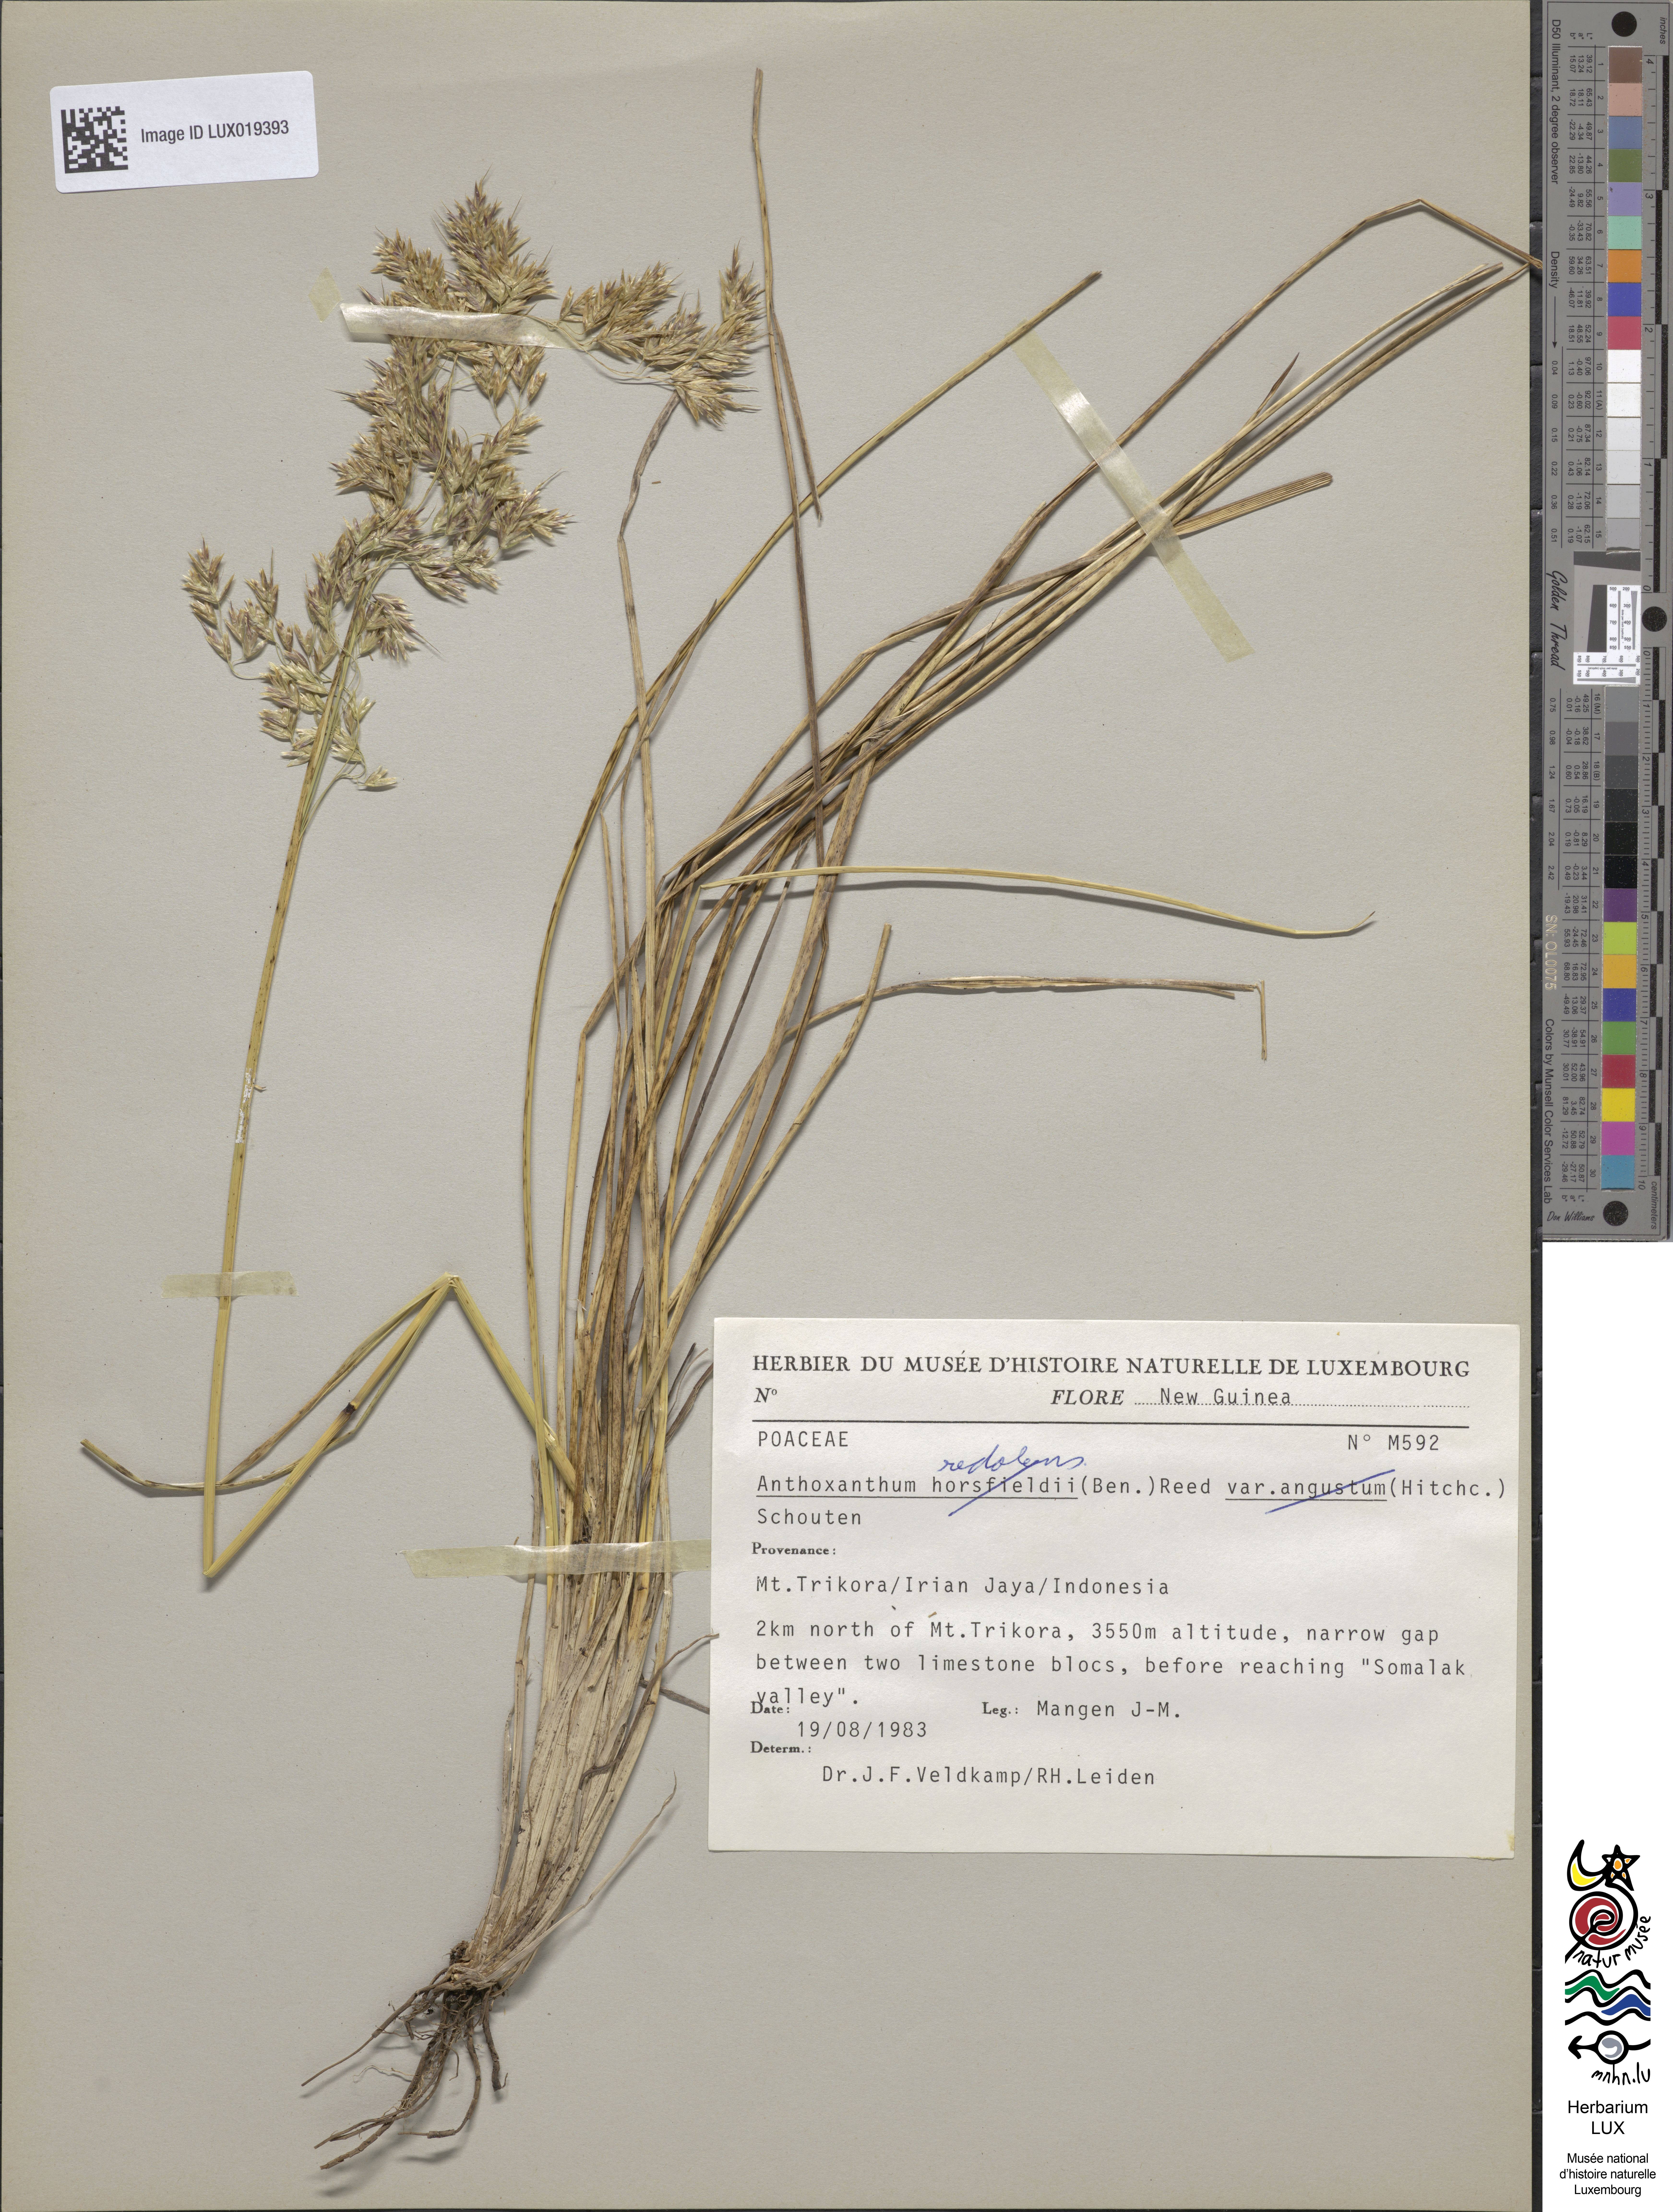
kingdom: Plantae
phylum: Tracheophyta
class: Liliopsida
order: Poales
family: Poaceae
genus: Anthoxanthum
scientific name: Anthoxanthum horsfieldii
